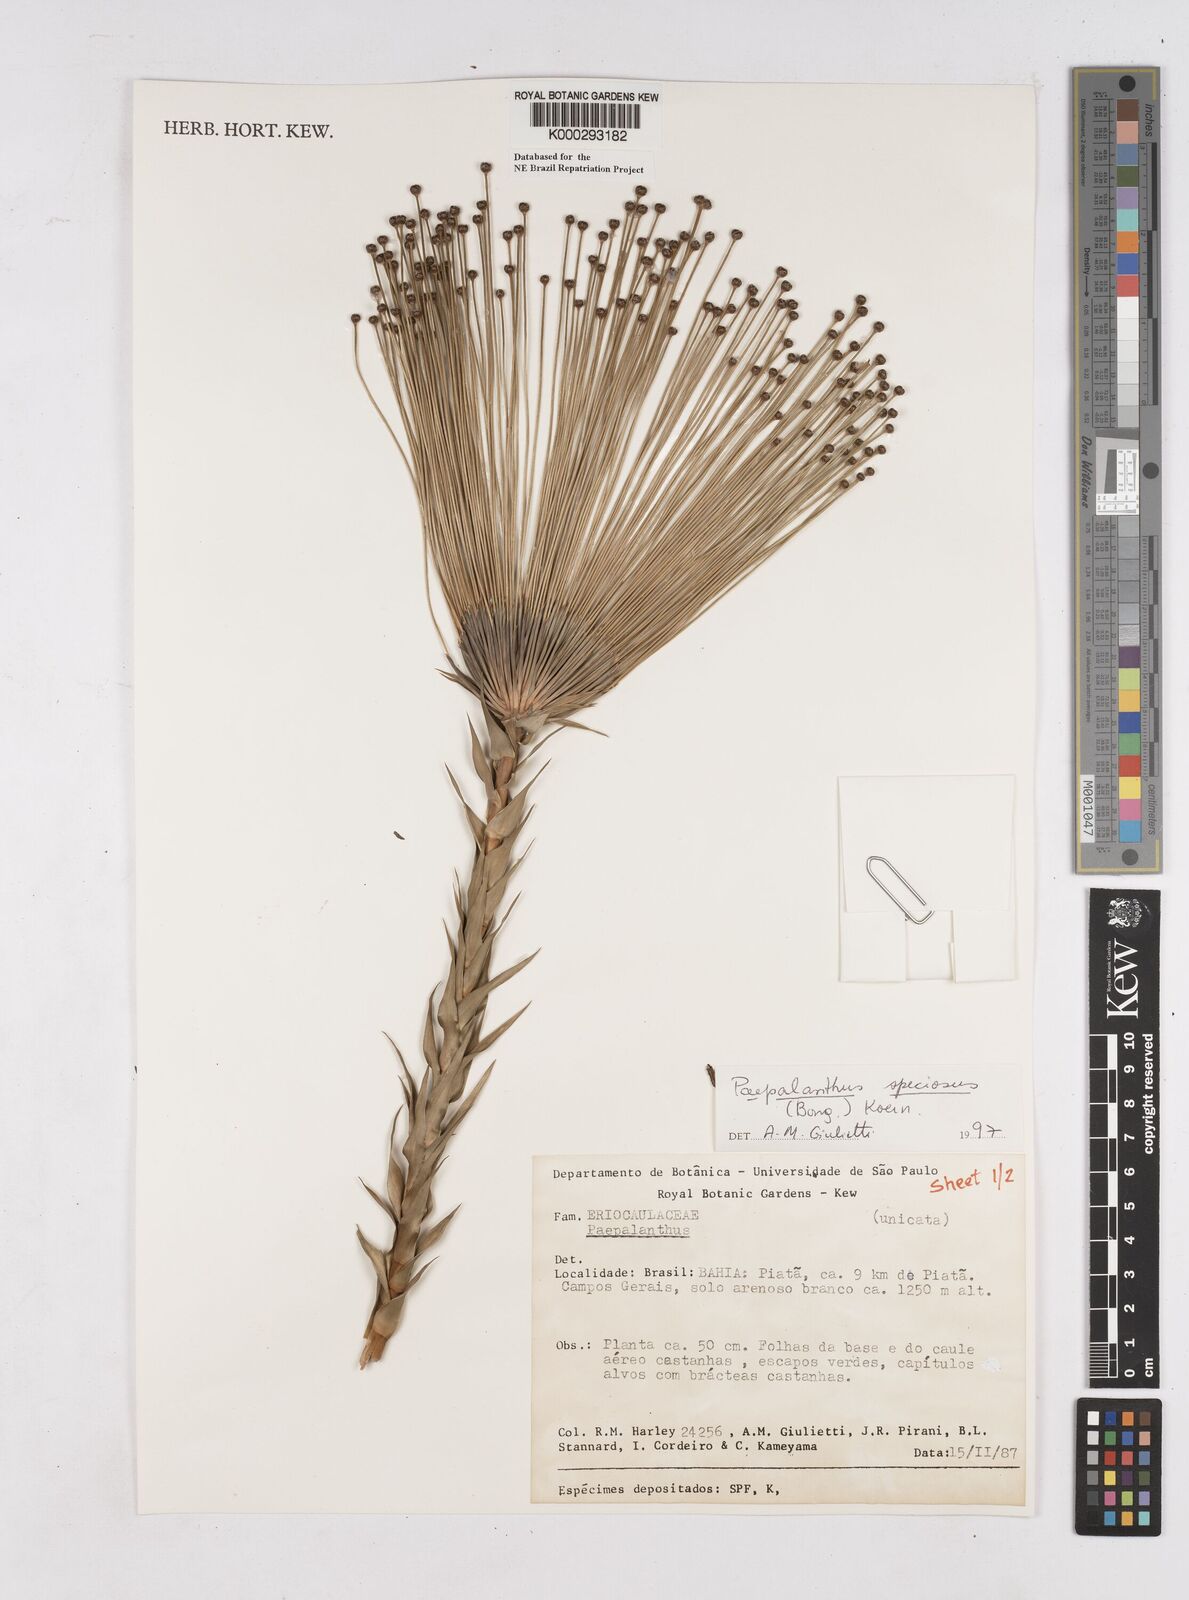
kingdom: Plantae
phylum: Tracheophyta
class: Liliopsida
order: Poales
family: Eriocaulaceae
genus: Paepalanthus
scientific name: Paepalanthus
